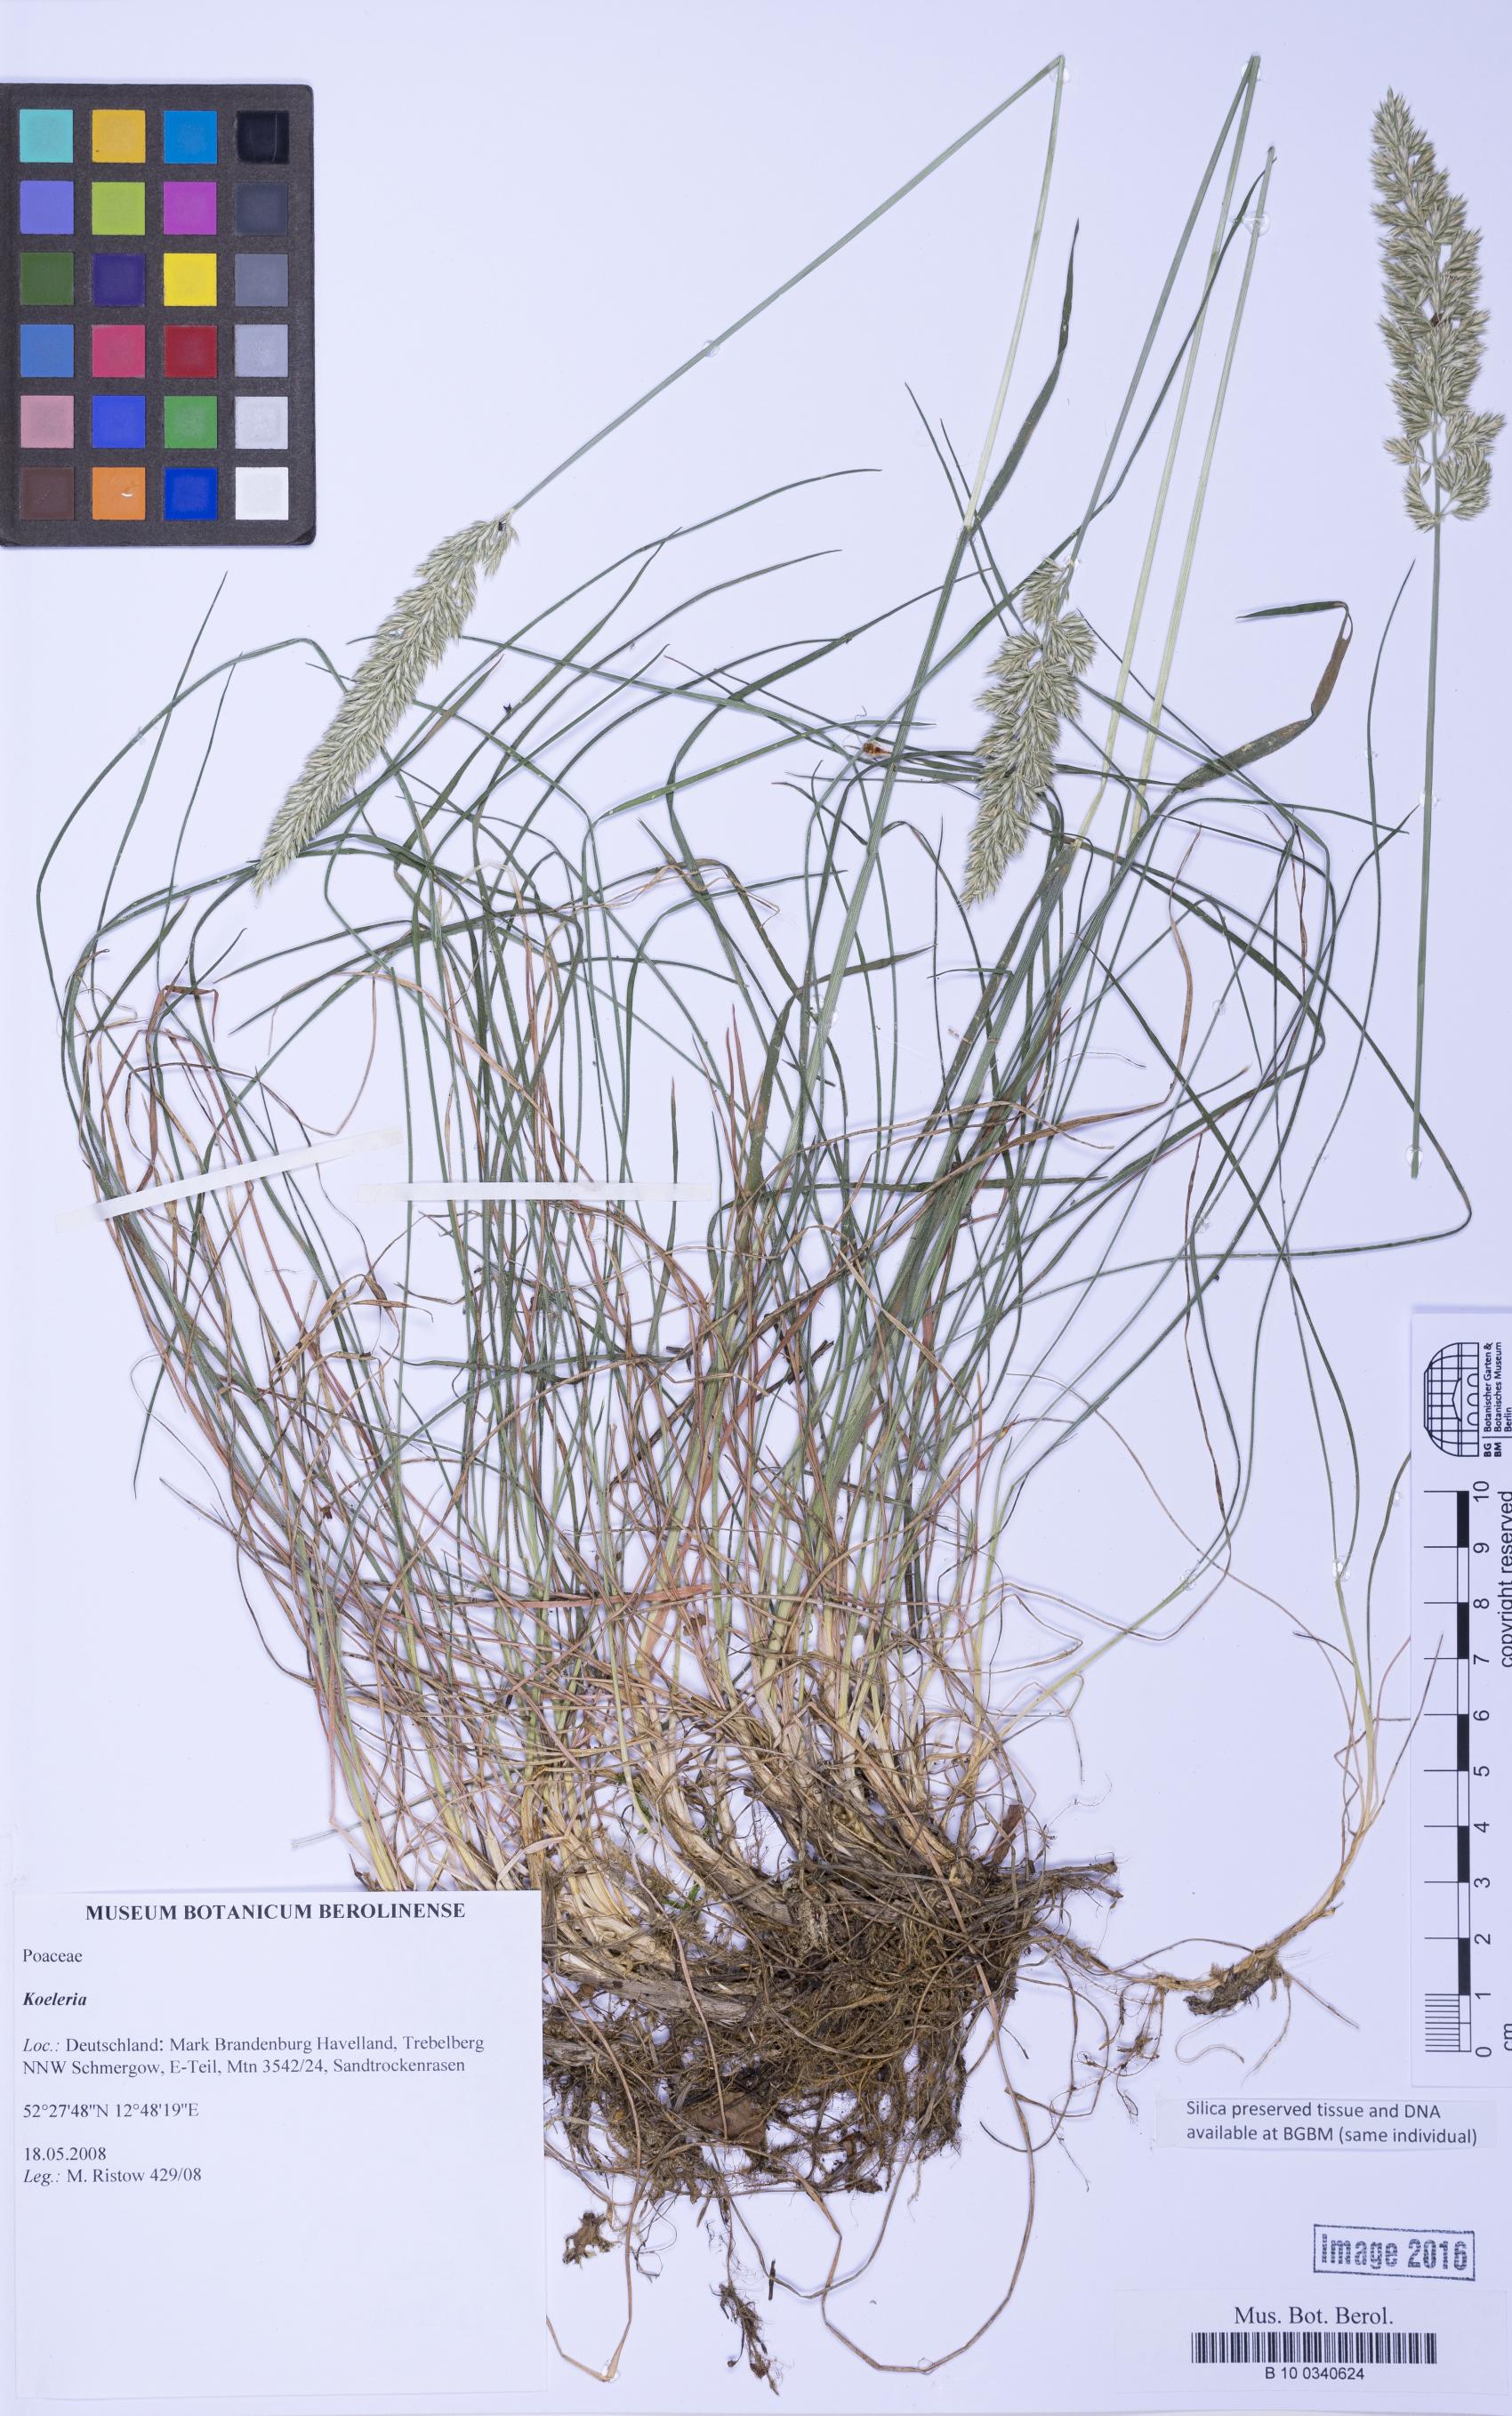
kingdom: Plantae
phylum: Tracheophyta
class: Liliopsida
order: Poales
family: Poaceae
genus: Koeleria
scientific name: Koeleria
